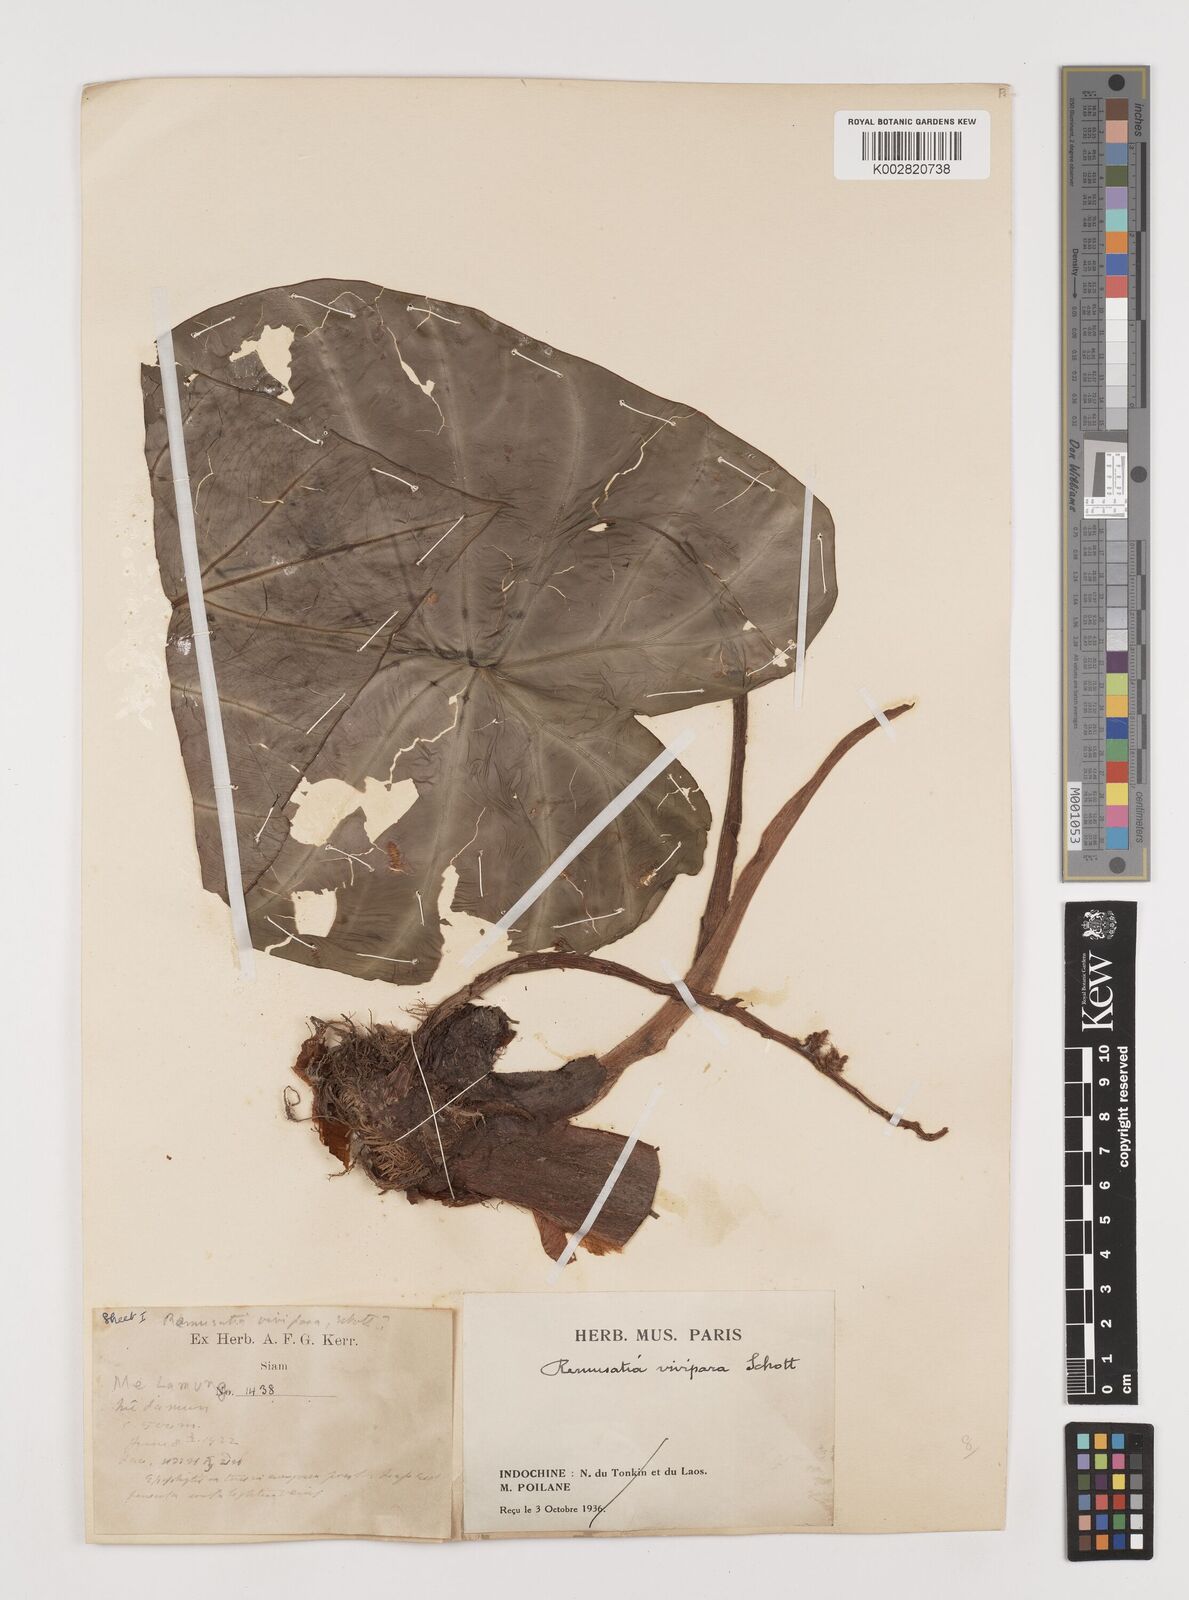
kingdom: Plantae
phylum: Tracheophyta
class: Liliopsida
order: Alismatales
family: Araceae
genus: Remusatia
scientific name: Remusatia vivipara
